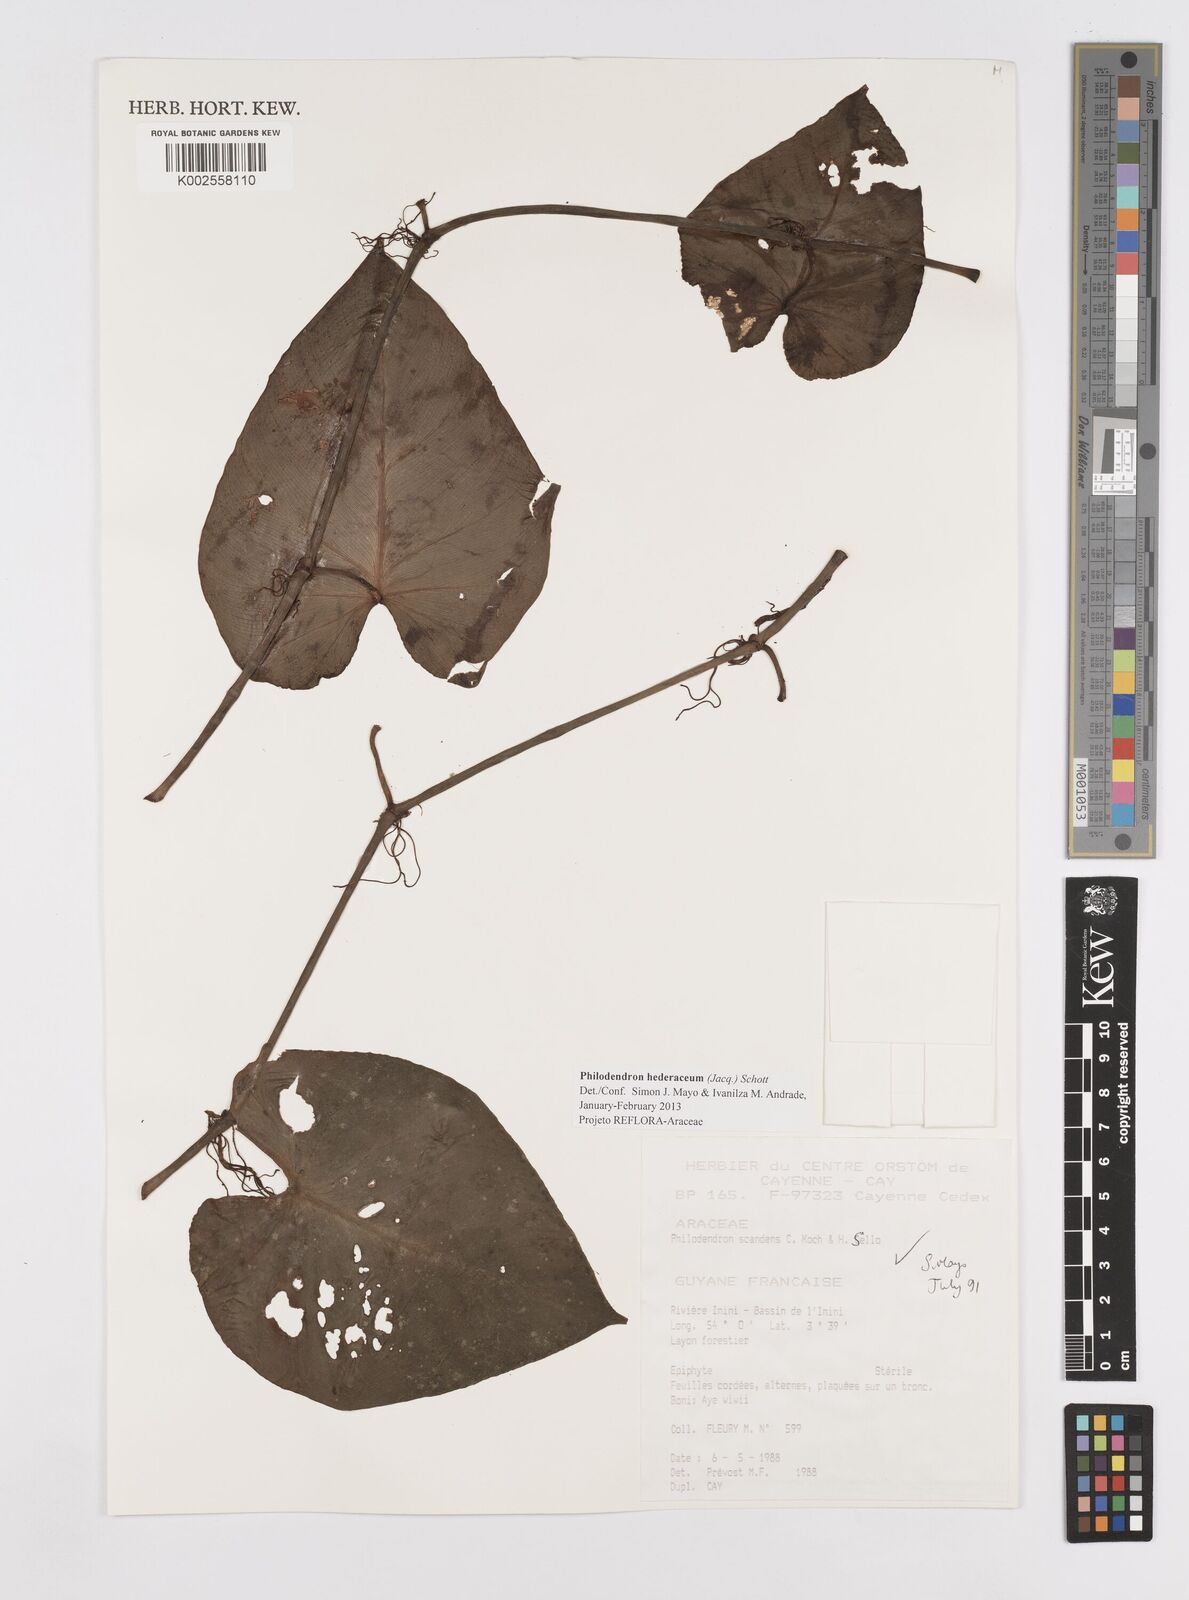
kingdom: Plantae
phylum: Tracheophyta
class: Liliopsida
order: Alismatales
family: Araceae
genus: Philodendron
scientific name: Philodendron hederaceum
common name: Vilevine
